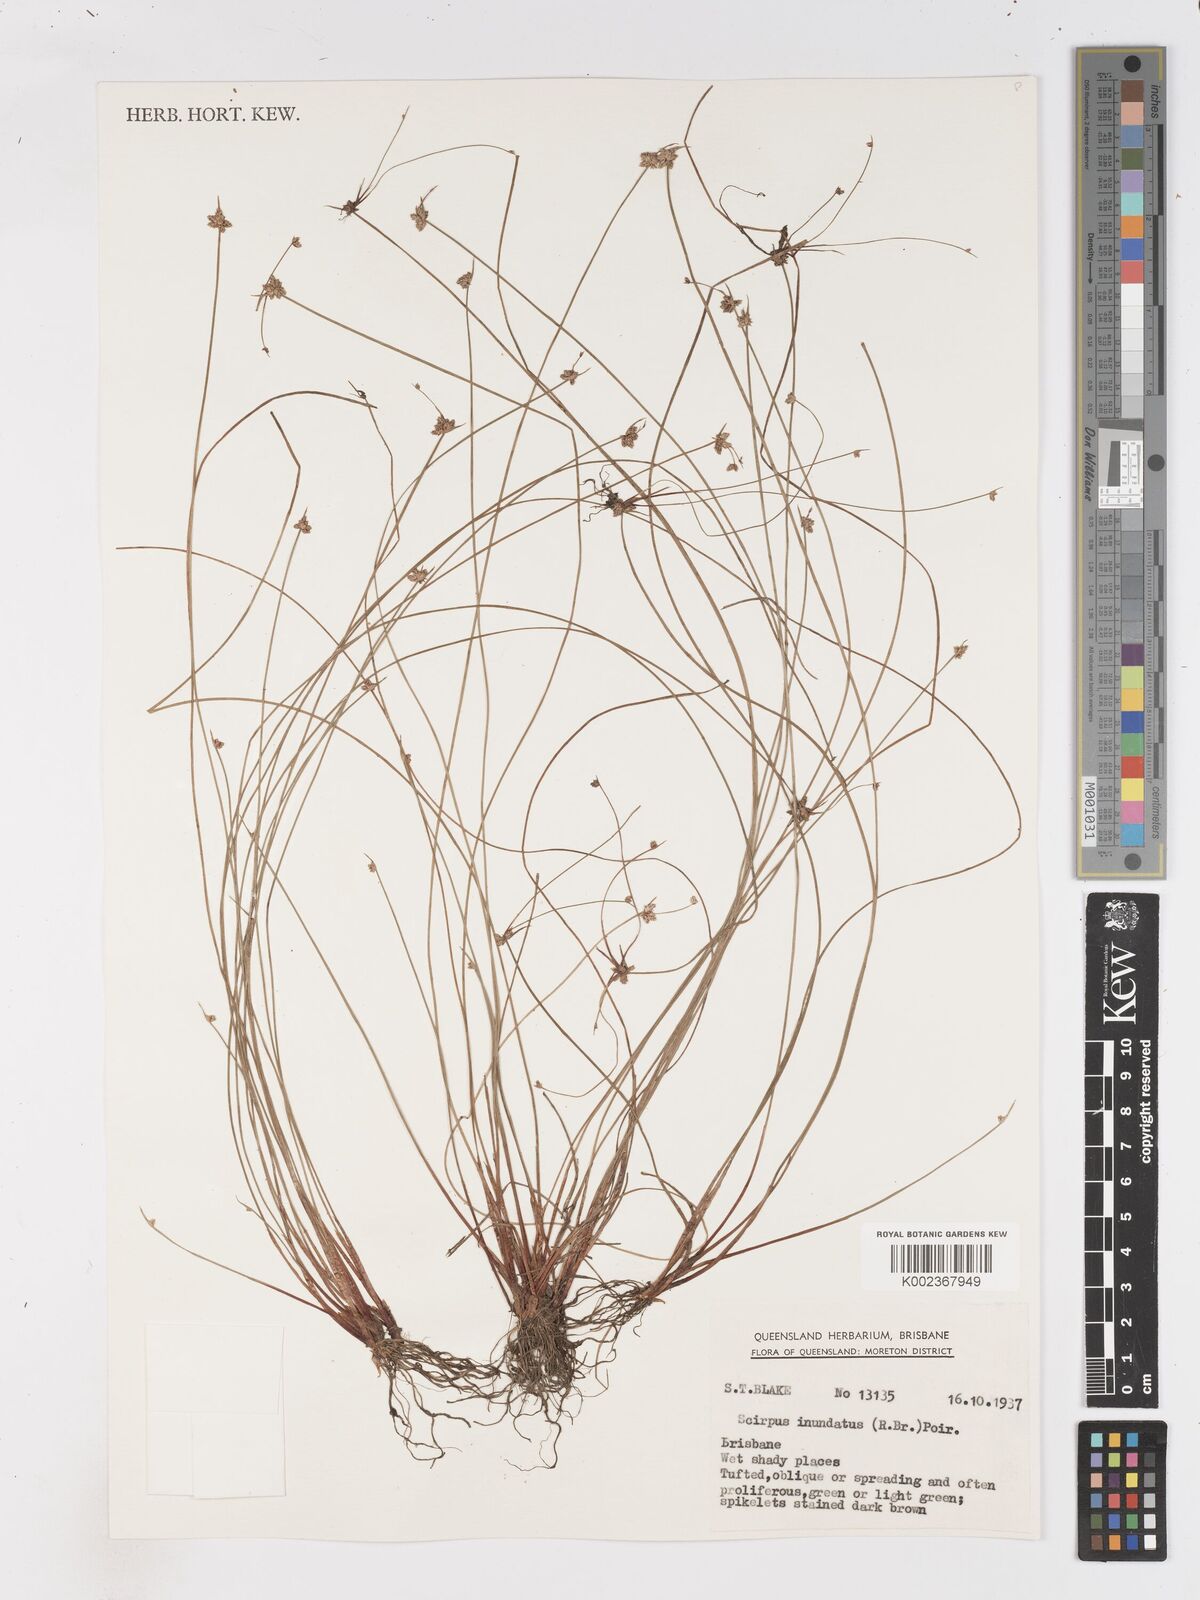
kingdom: Plantae
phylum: Tracheophyta
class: Liliopsida
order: Poales
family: Cyperaceae
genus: Isolepis
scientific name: Isolepis inundata
